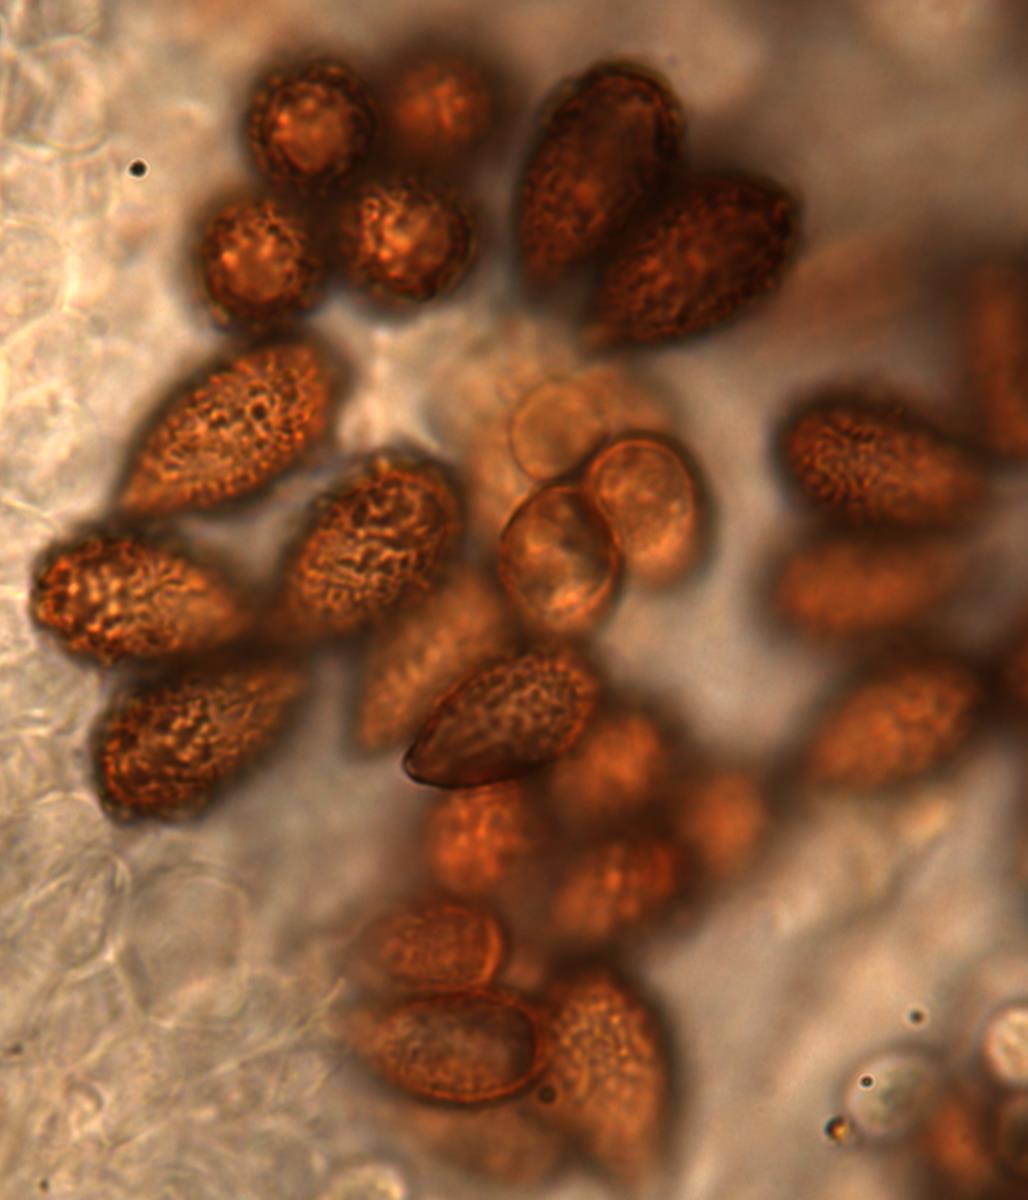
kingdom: Fungi
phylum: Basidiomycota
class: Agaricomycetes
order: Agaricales
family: Cortinariaceae
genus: Cortinarius
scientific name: Cortinarius beeverorum
